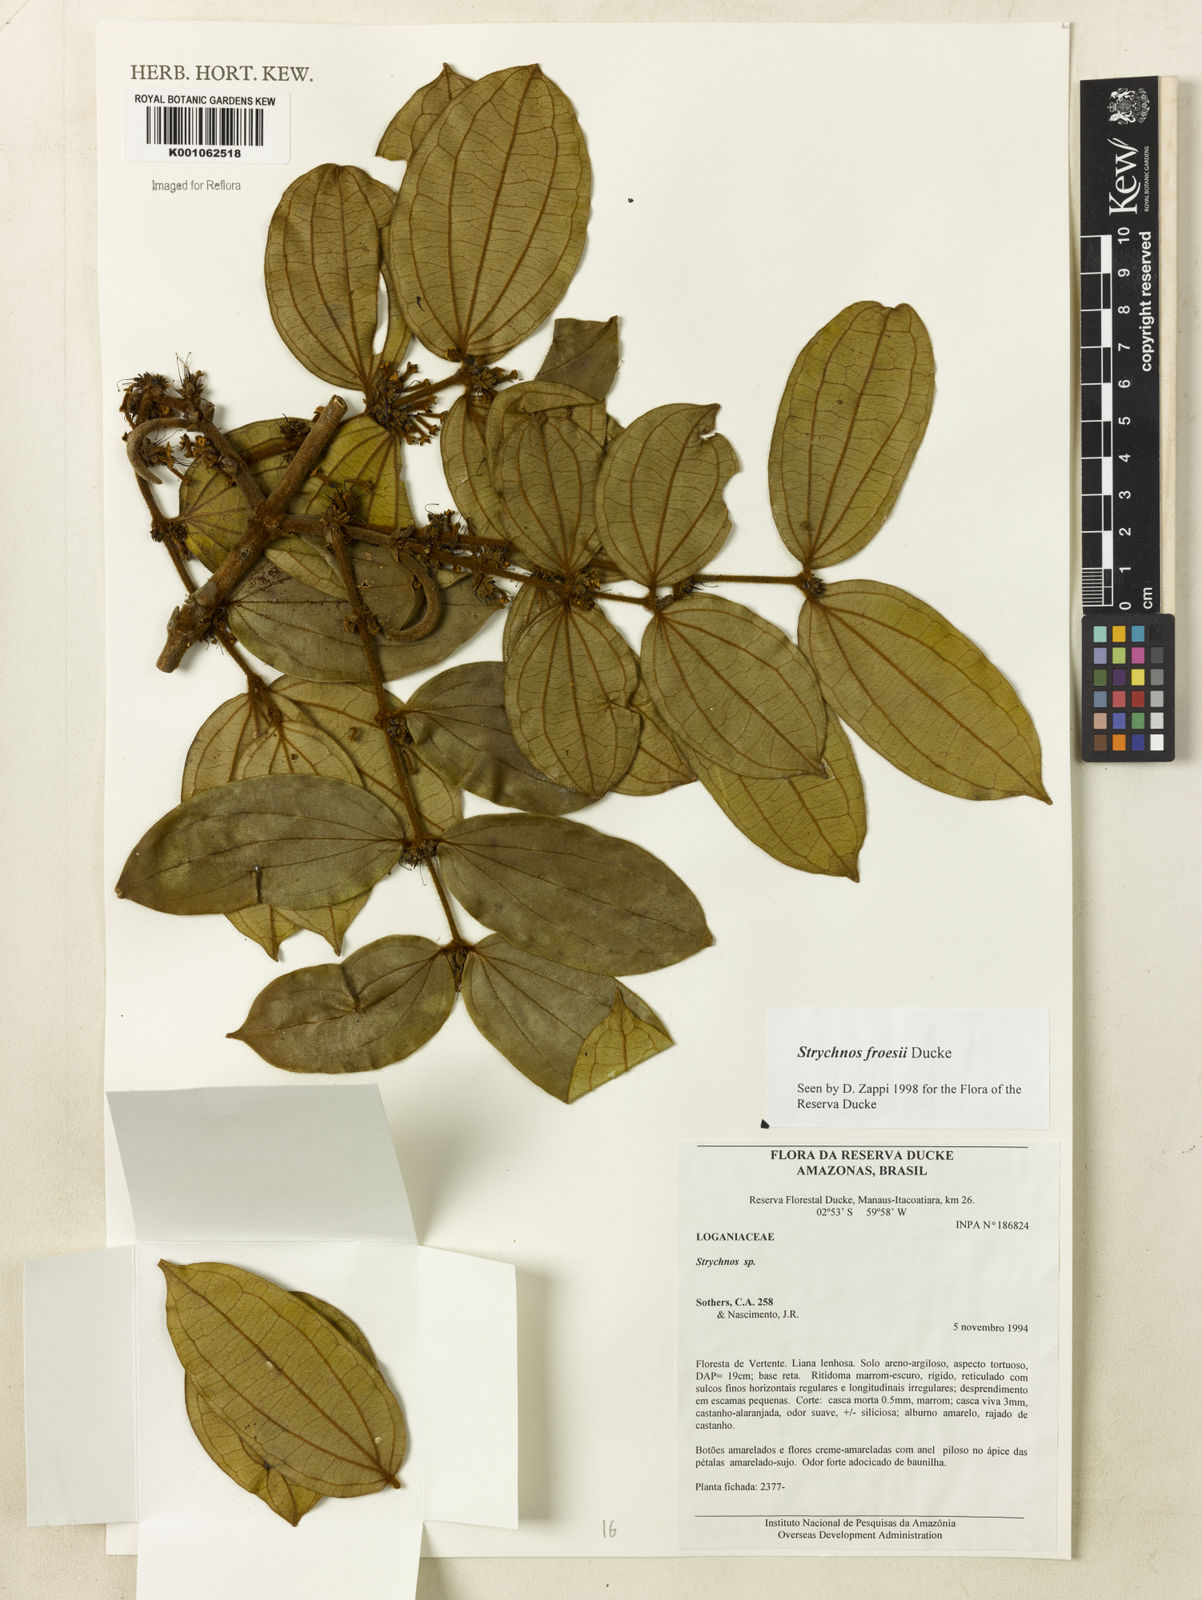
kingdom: Plantae
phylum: Tracheophyta
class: Magnoliopsida
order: Gentianales
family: Loganiaceae
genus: Strychnos
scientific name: Strychnos froesii
